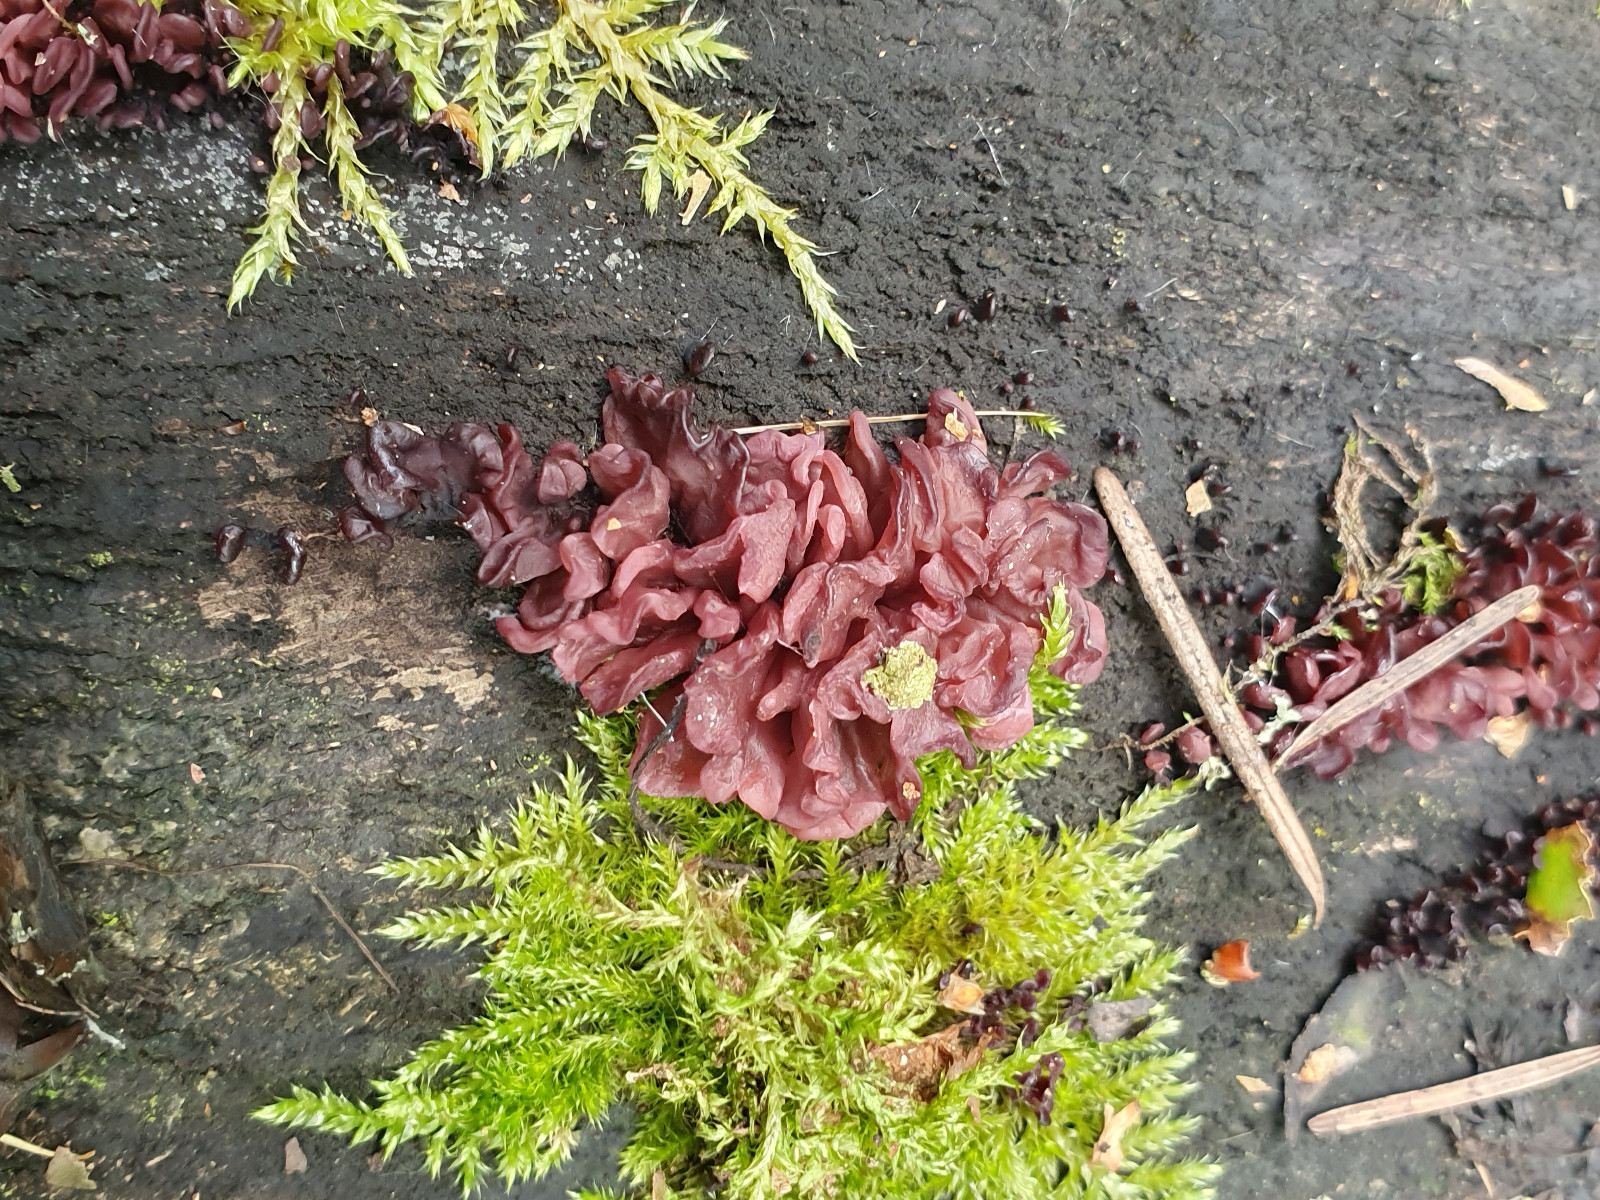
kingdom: Fungi
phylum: Ascomycota
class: Leotiomycetes
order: Helotiales
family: Gelatinodiscaceae
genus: Ascocoryne
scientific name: Ascocoryne sarcoides
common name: rødlilla sejskive
